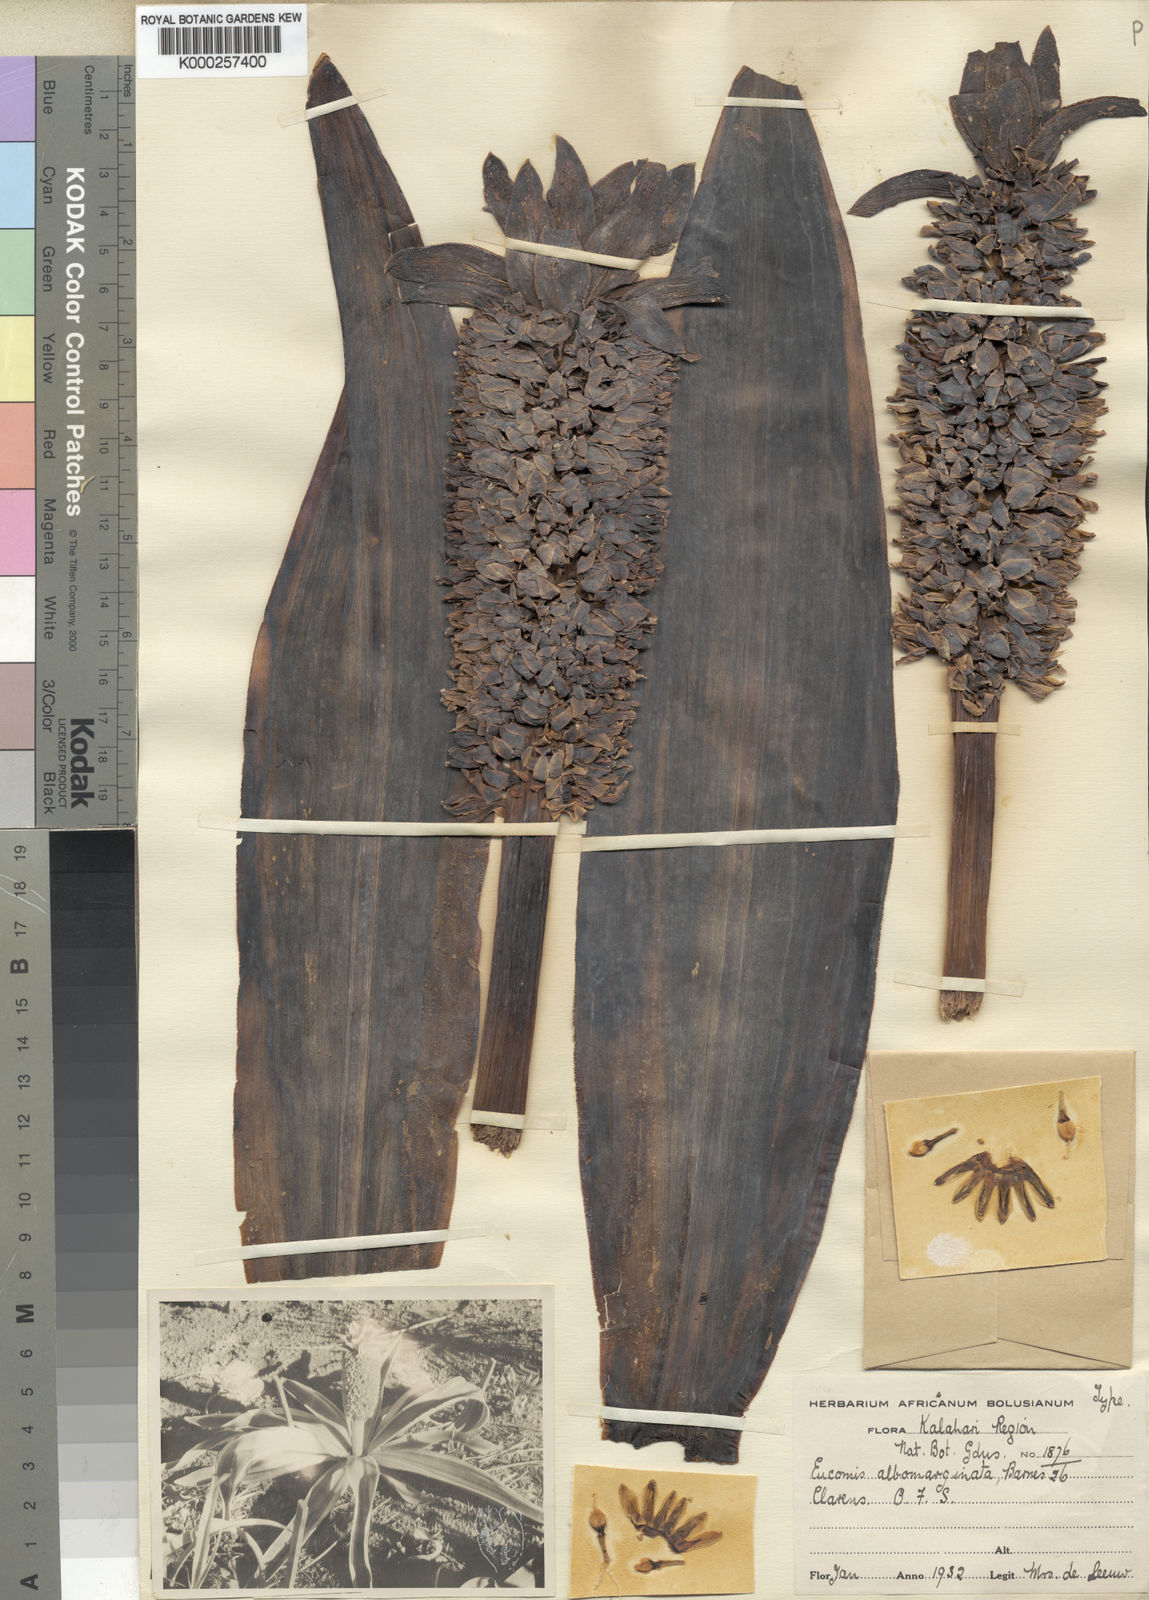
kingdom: Plantae
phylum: Tracheophyta
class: Liliopsida
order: Asparagales
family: Asparagaceae
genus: Eucomis
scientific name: Eucomis albomarginata
